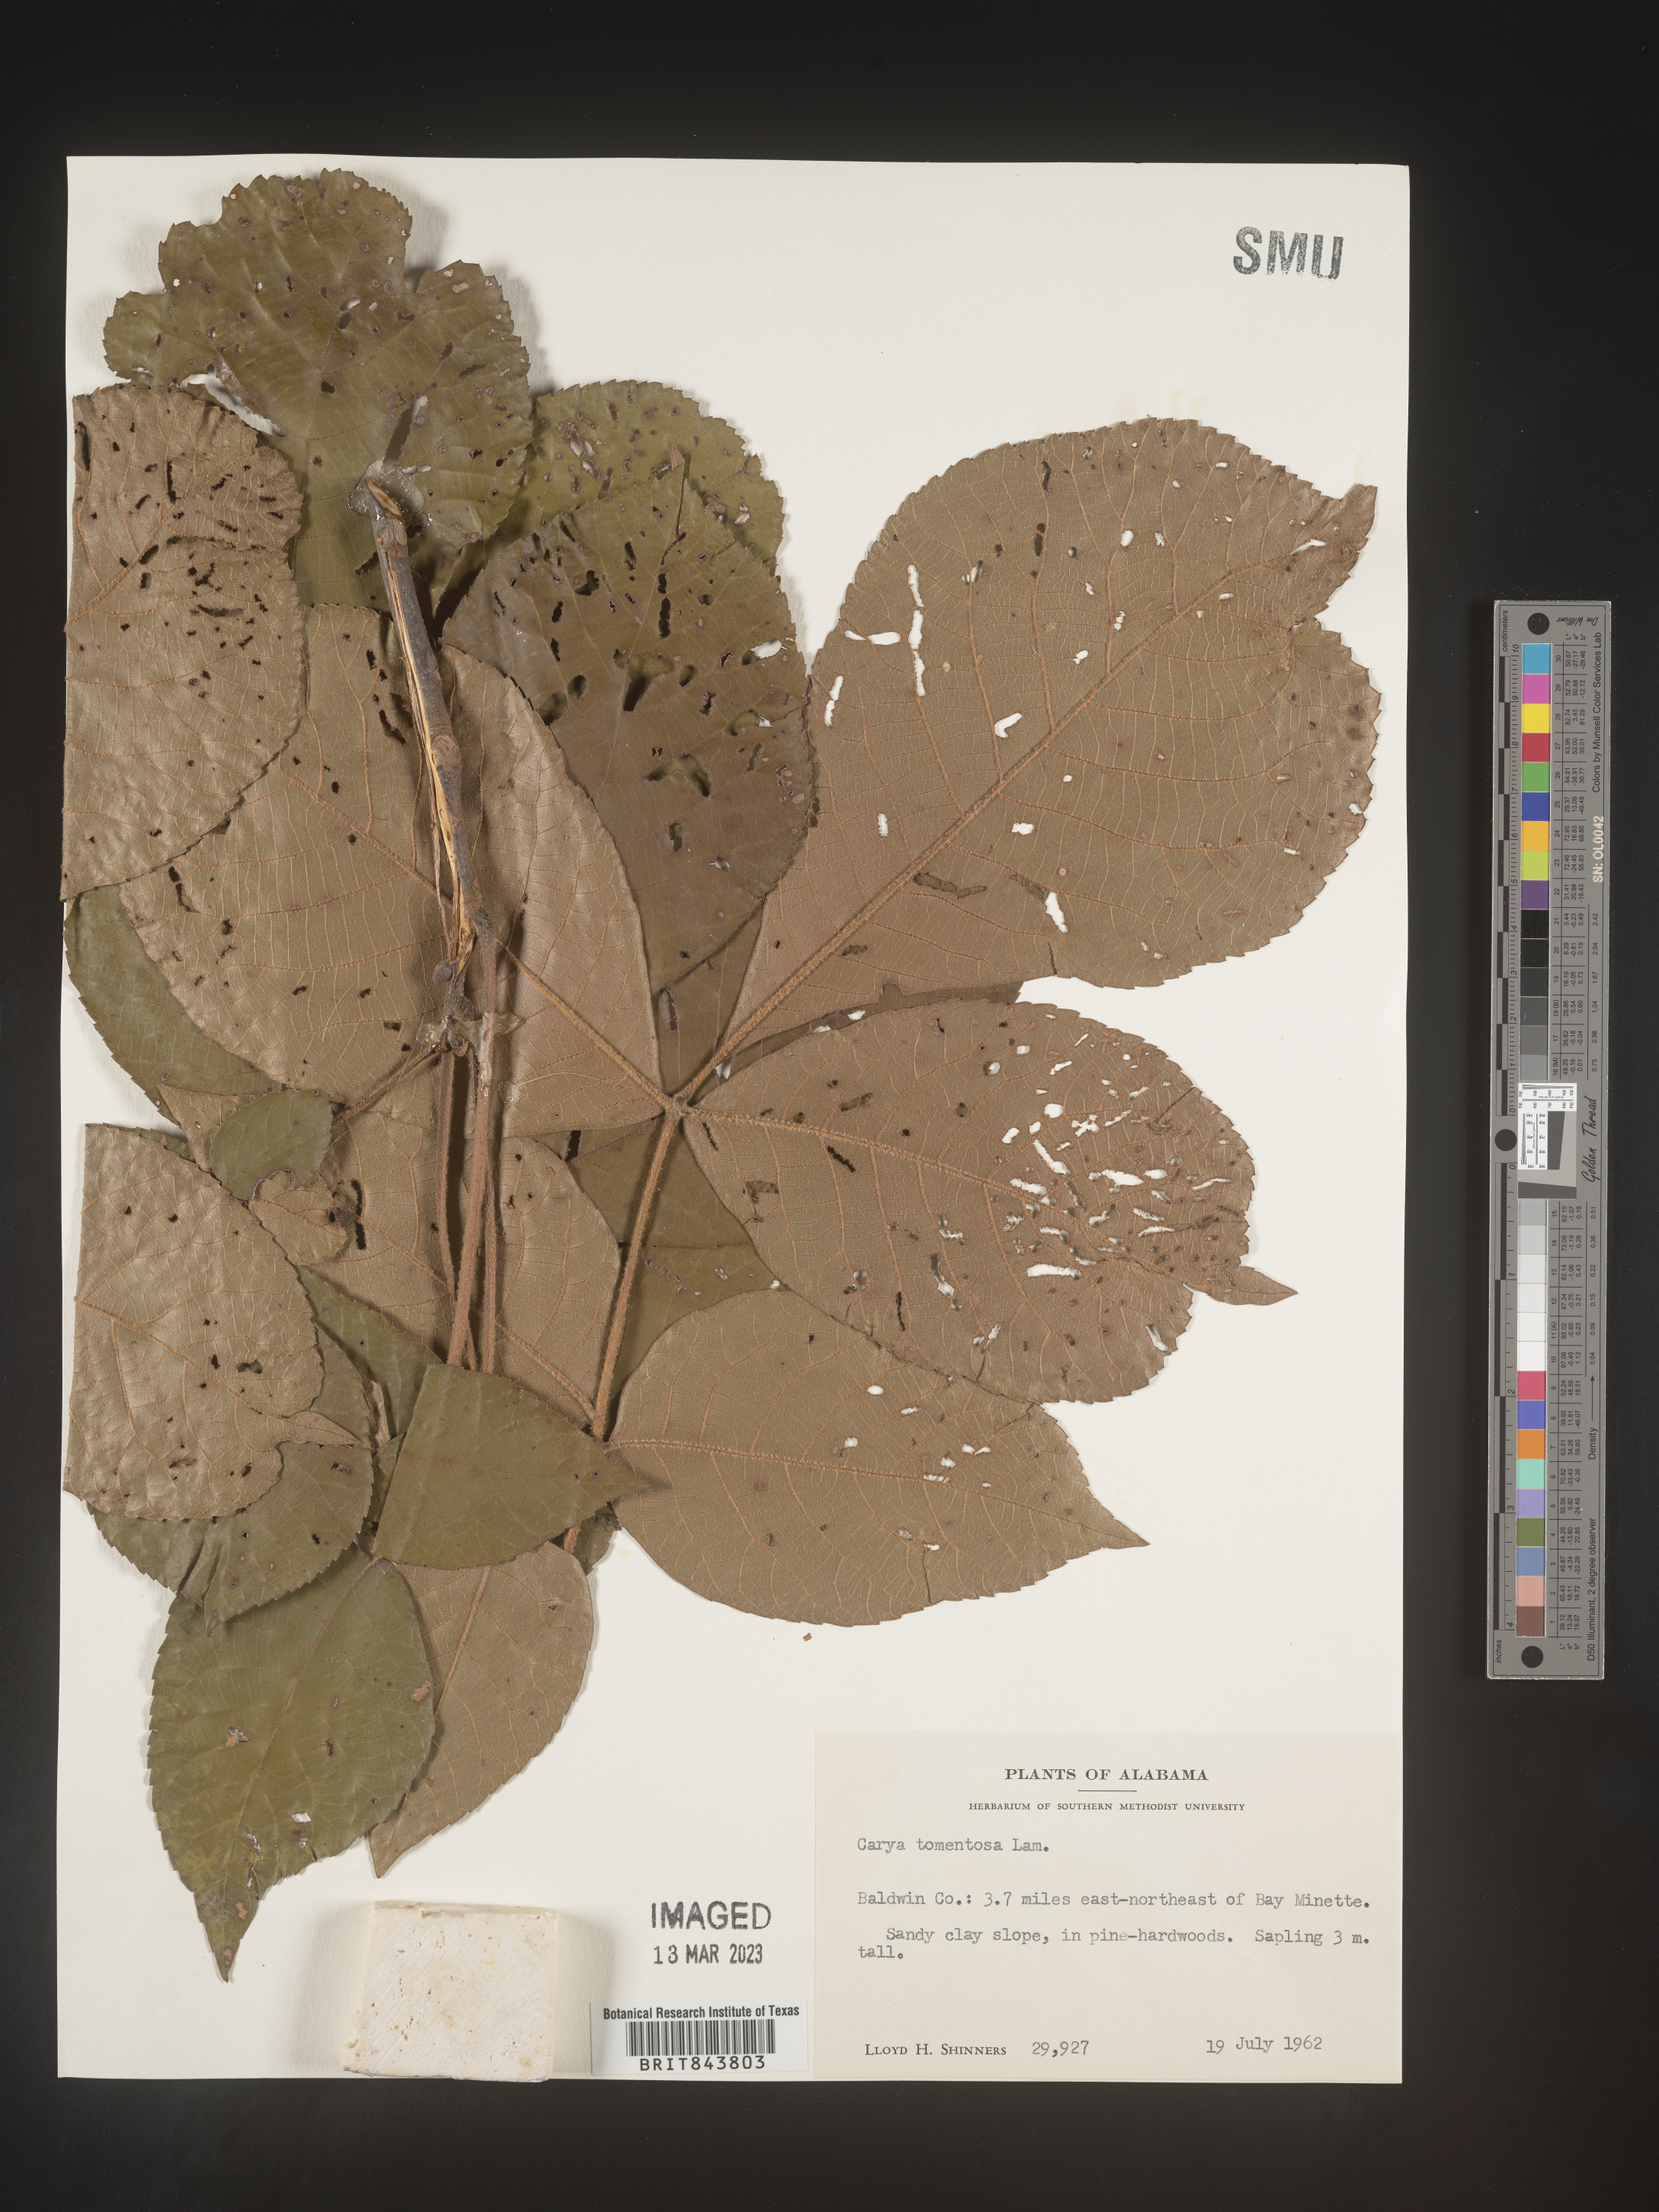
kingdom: Plantae
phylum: Tracheophyta
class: Magnoliopsida
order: Fagales
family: Juglandaceae
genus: Carya
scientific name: Carya alba
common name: Mockernut hickory
